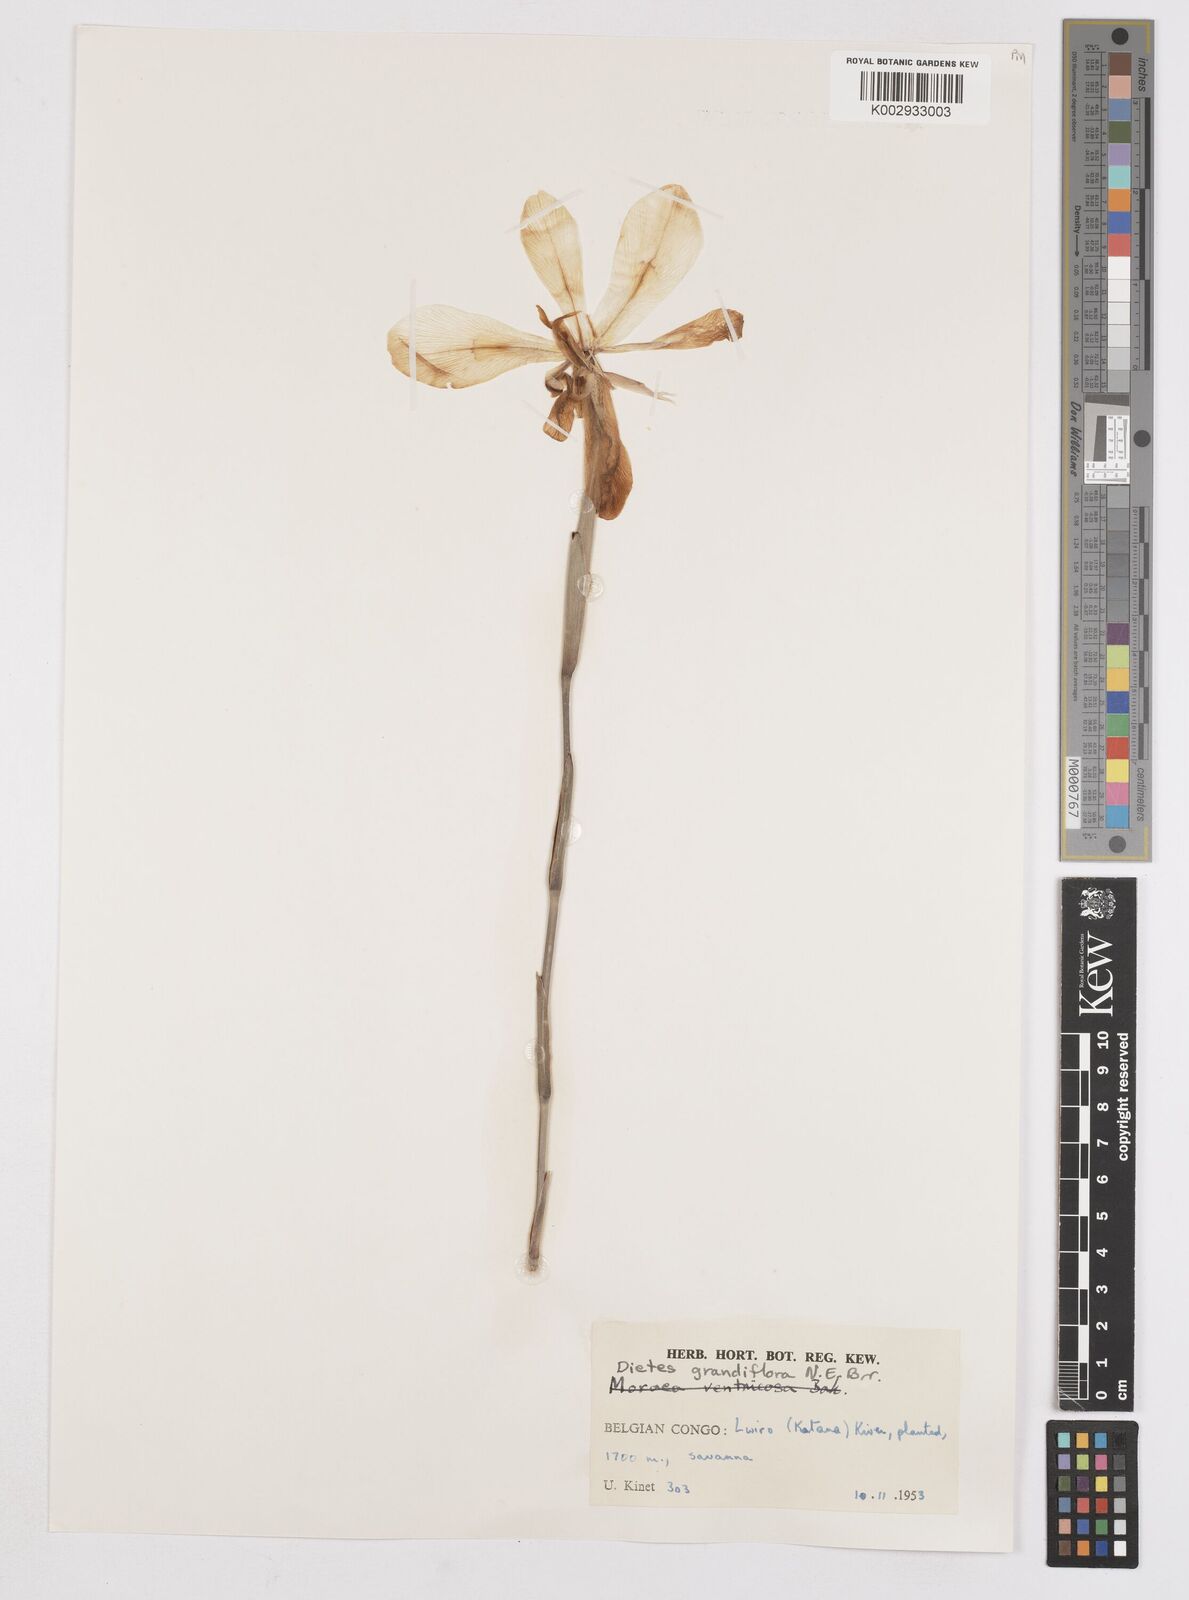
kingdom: Plantae
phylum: Tracheophyta
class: Liliopsida
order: Asparagales
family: Iridaceae
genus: Dietes
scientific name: Dietes grandiflora
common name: Wild iris
